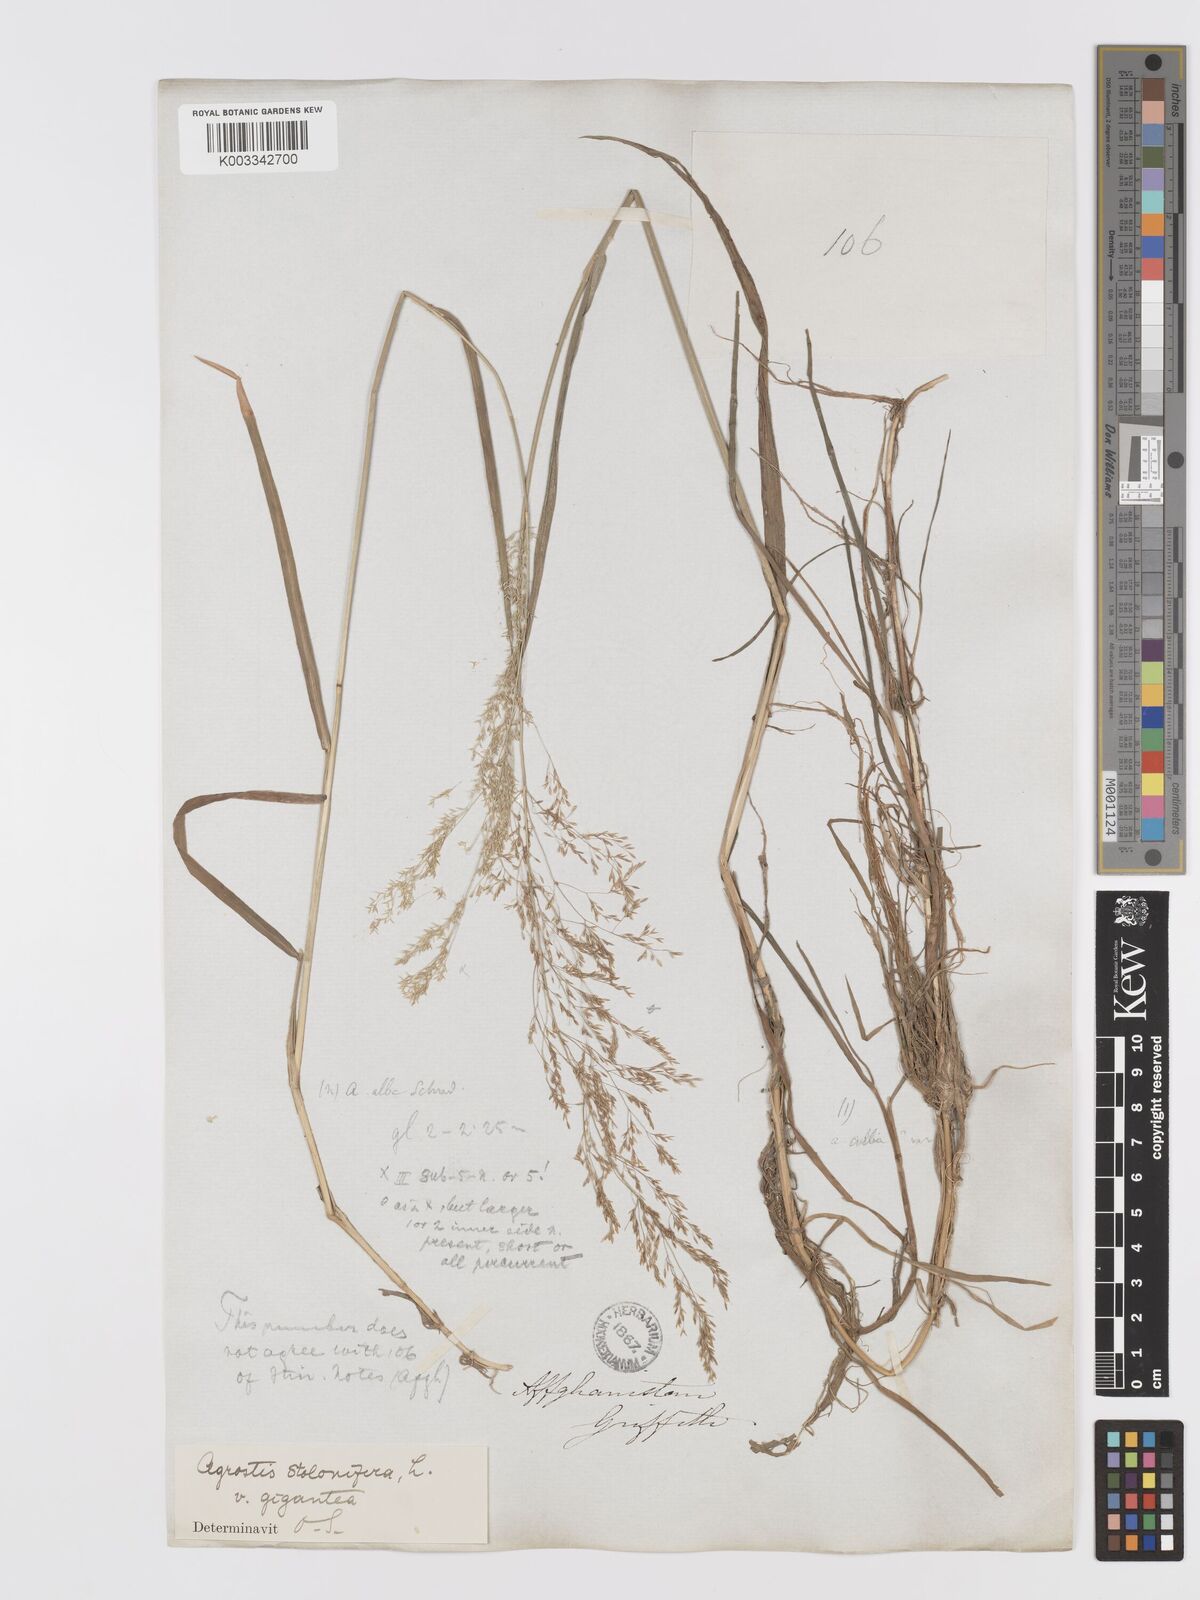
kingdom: Plantae
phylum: Tracheophyta
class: Liliopsida
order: Poales
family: Poaceae
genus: Agrostis
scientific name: Agrostis gigantea
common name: Black bent
